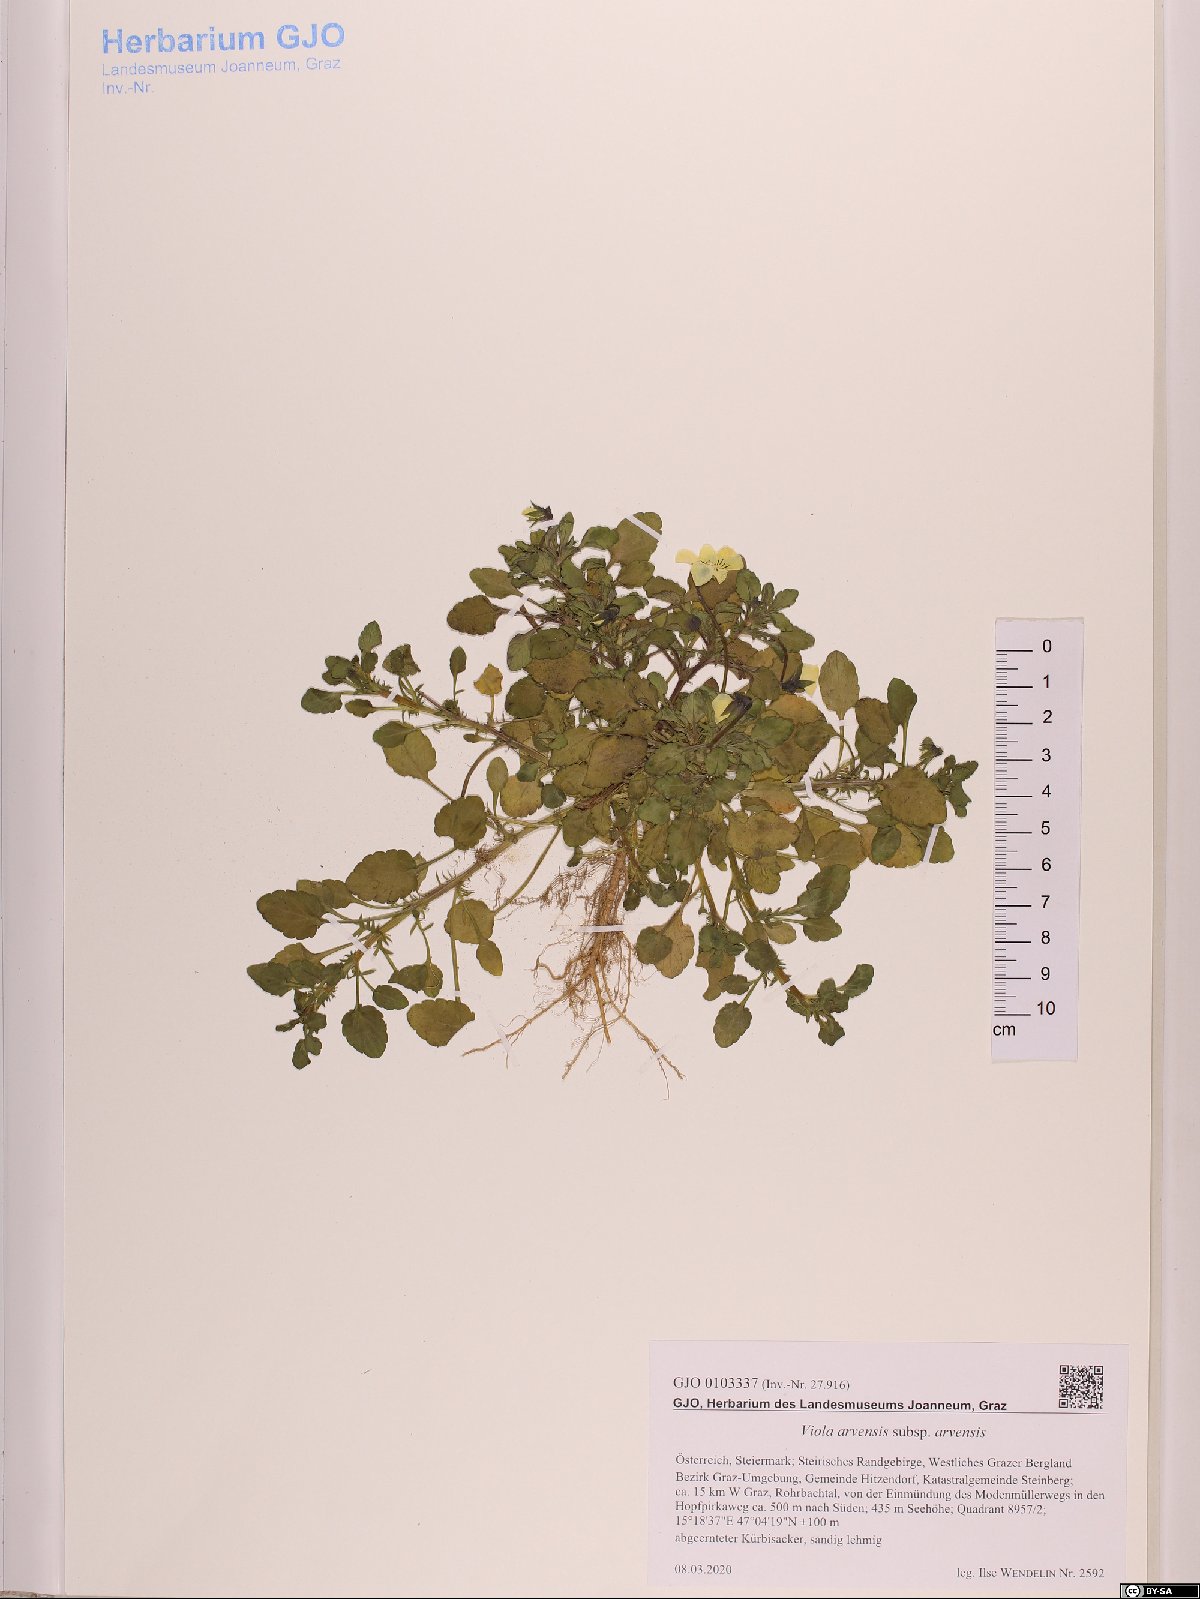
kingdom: Plantae
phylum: Tracheophyta
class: Magnoliopsida
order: Malpighiales
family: Violaceae
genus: Viola
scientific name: Viola arvensis
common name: Field pansy
